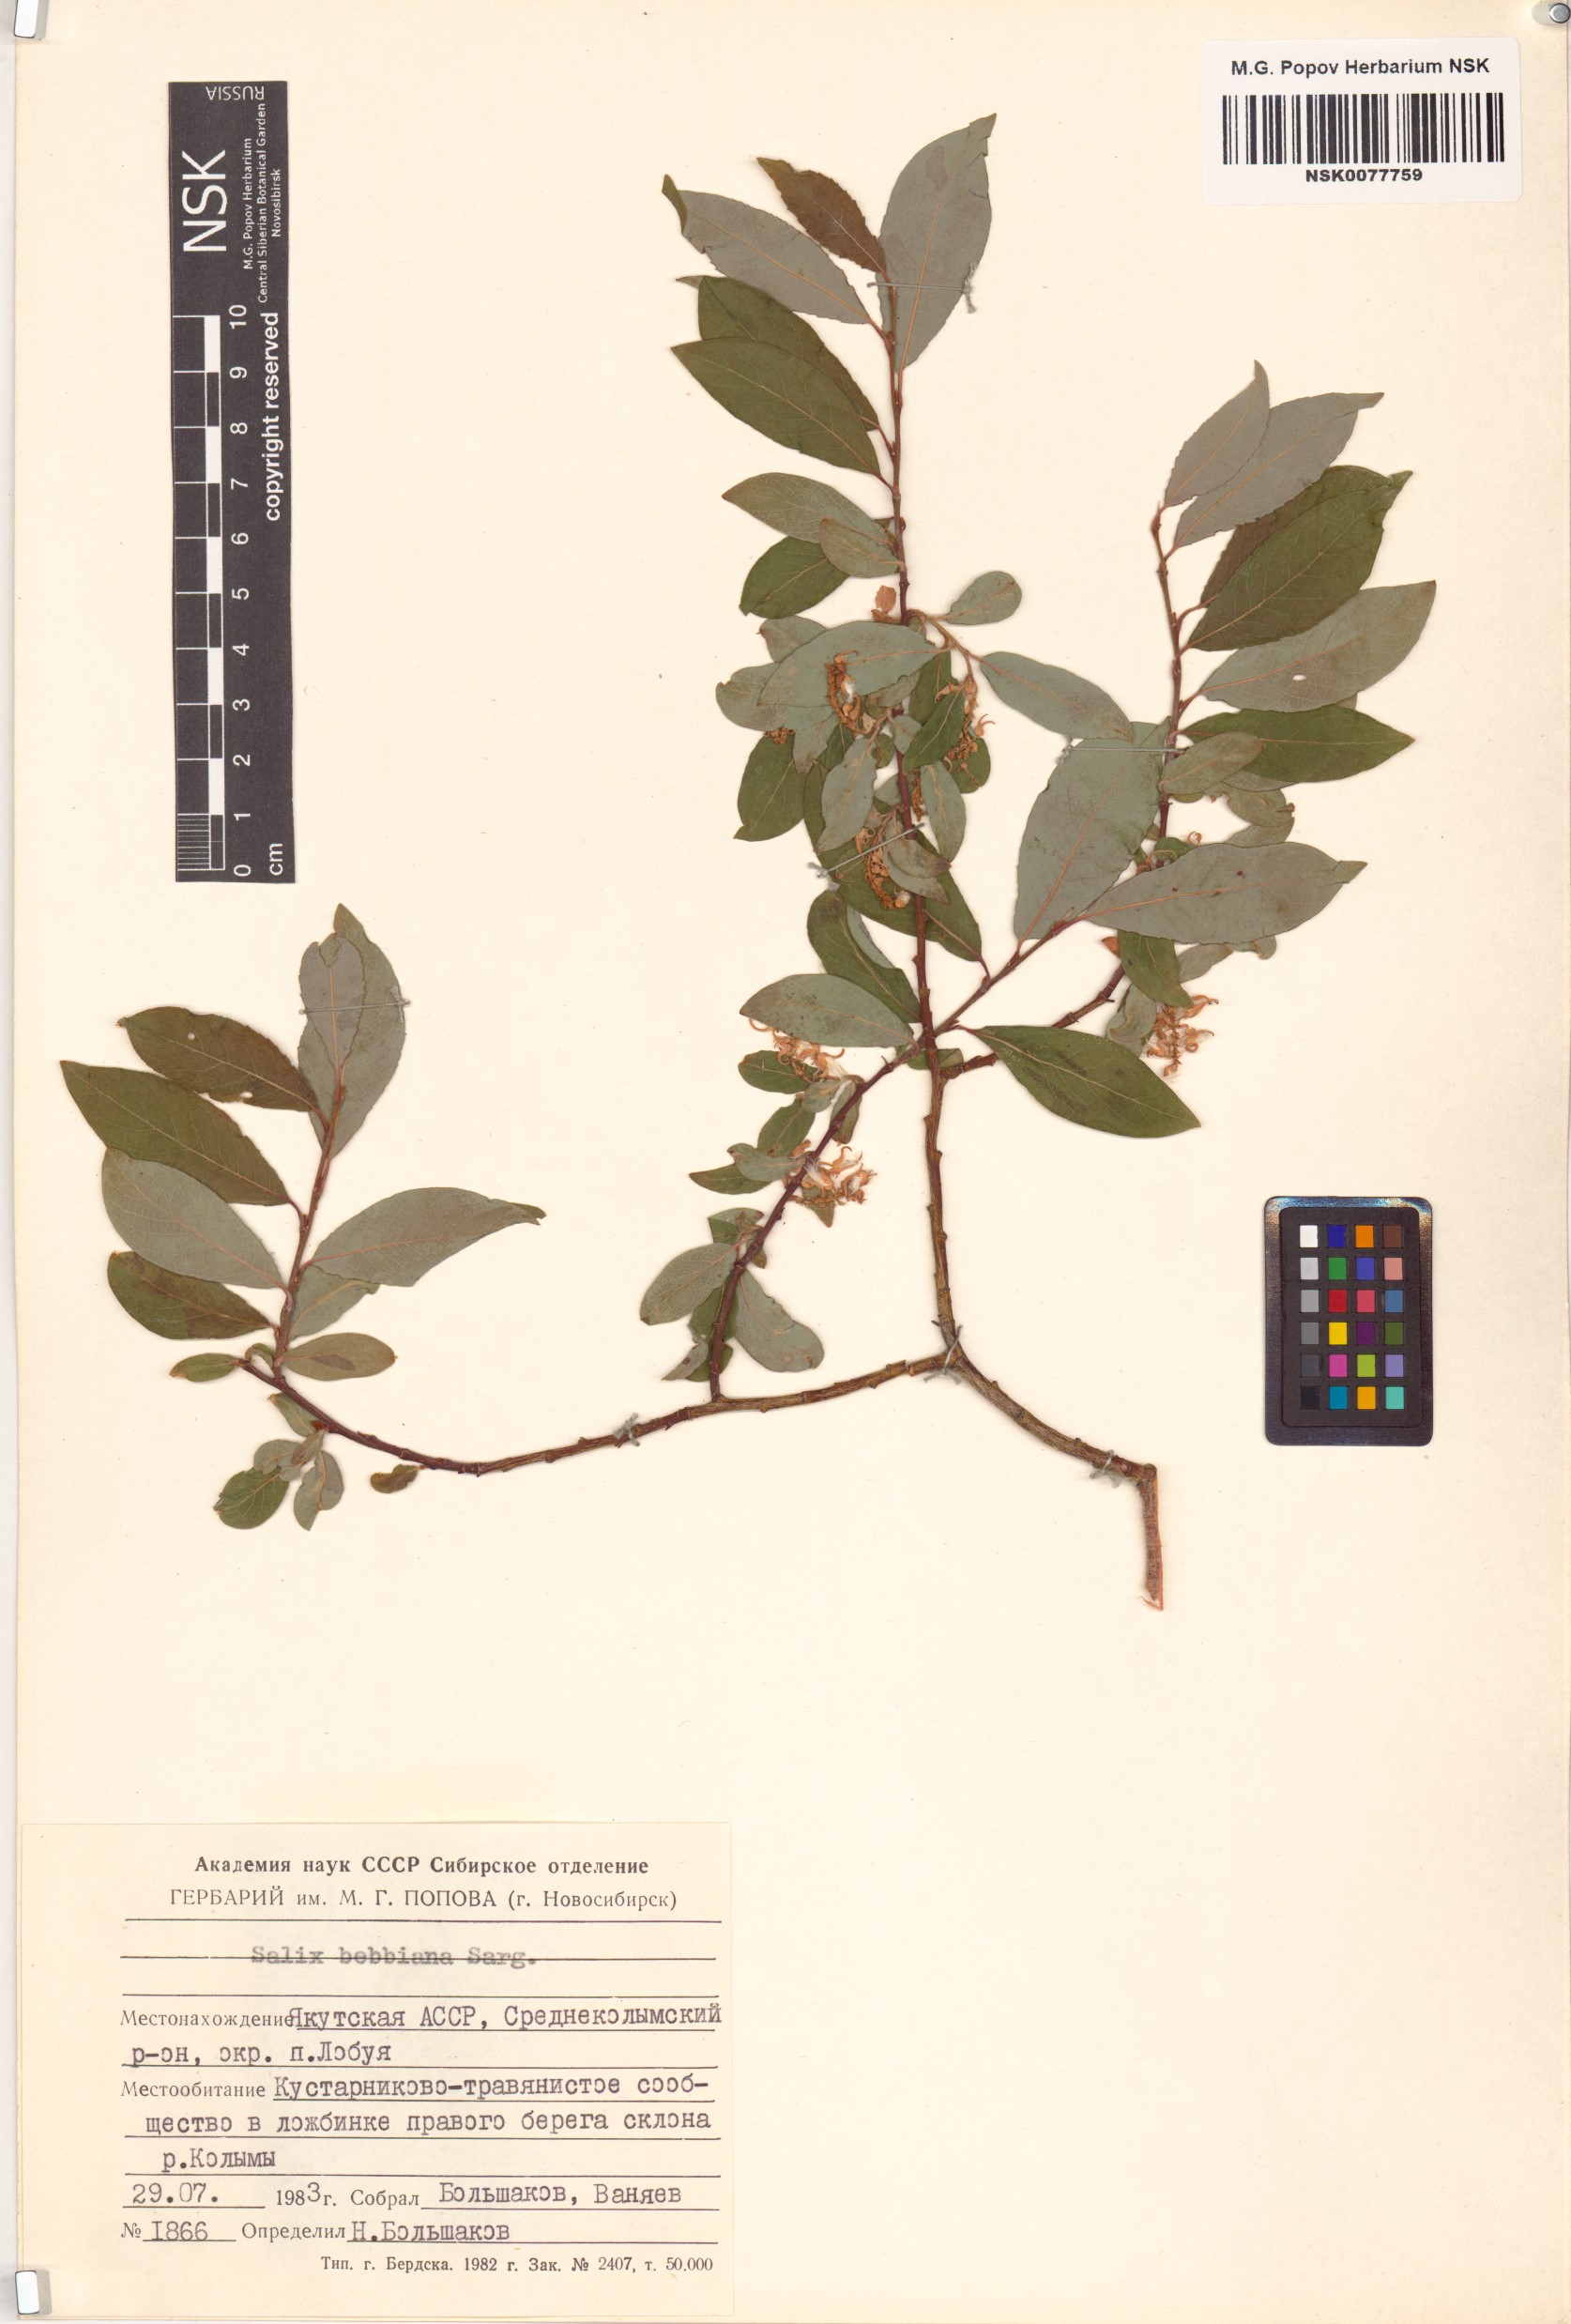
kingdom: Plantae
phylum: Tracheophyta
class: Magnoliopsida
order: Malpighiales
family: Salicaceae
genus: Salix
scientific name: Salix bebbiana
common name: Bebb's willow
